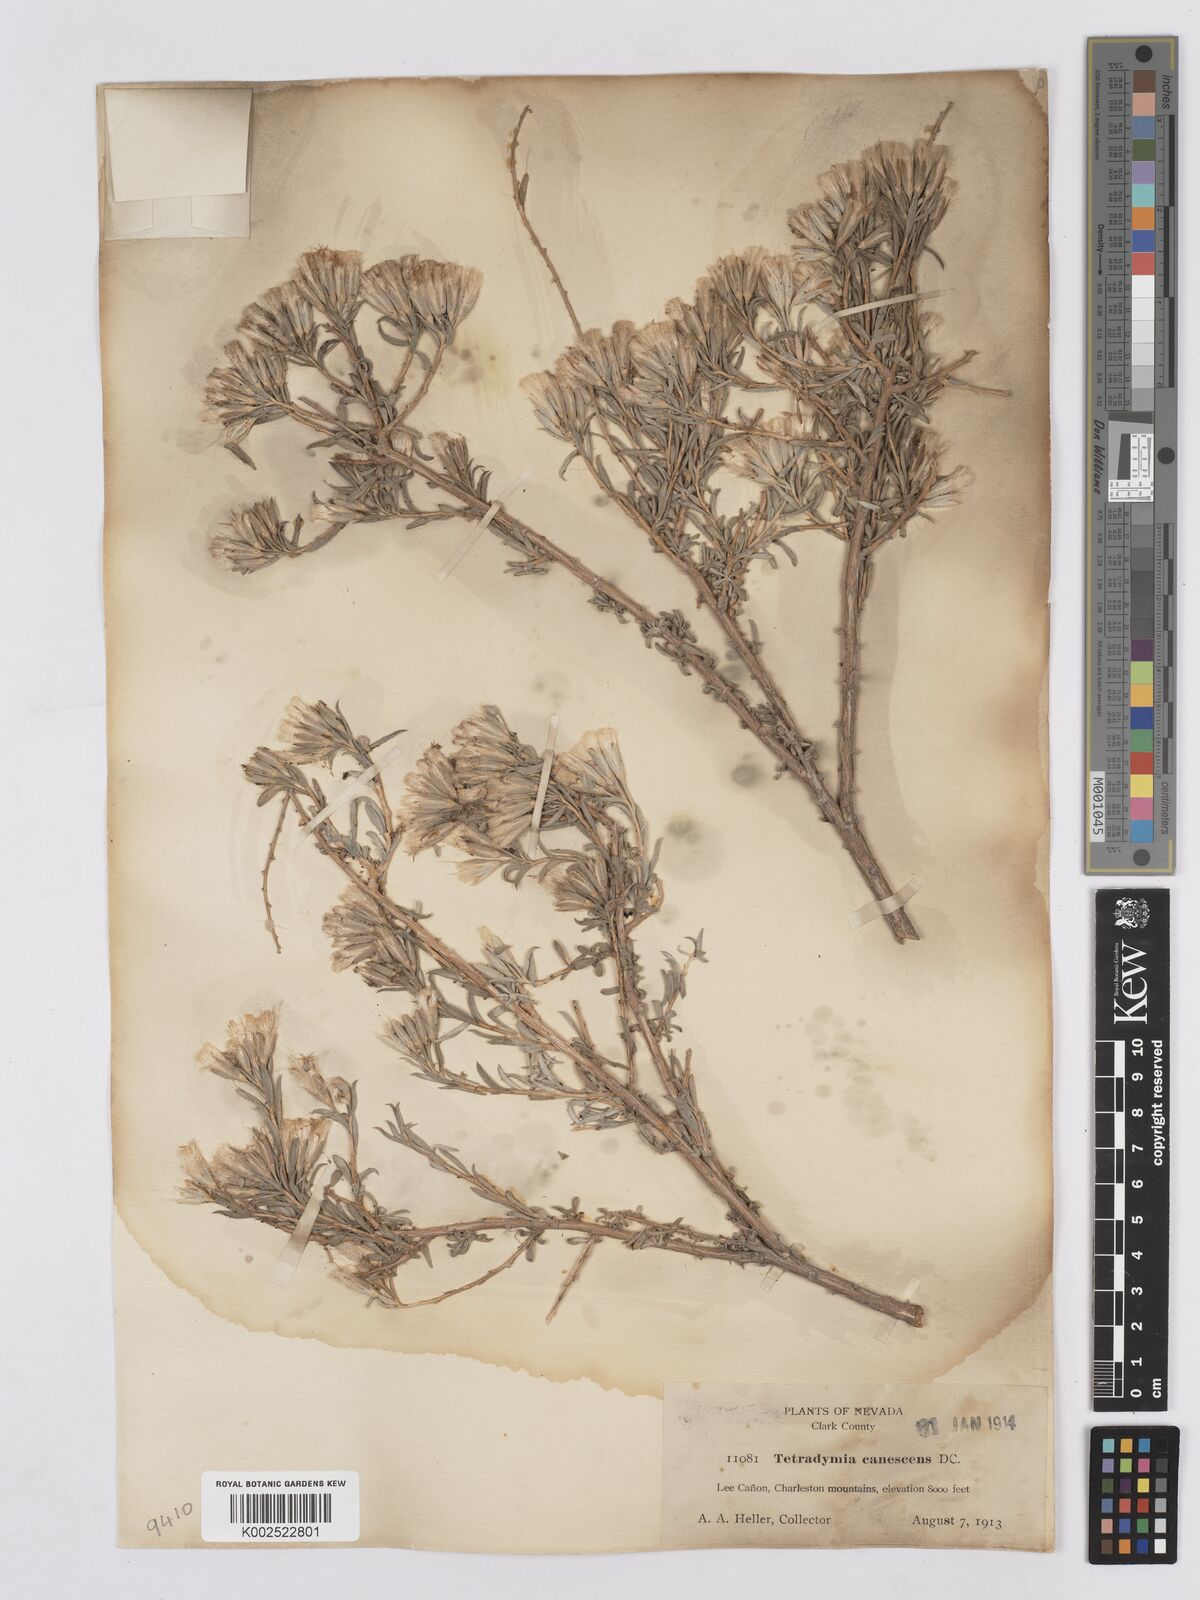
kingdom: Plantae
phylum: Tracheophyta
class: Magnoliopsida
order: Asterales
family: Asteraceae
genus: Tetradymia
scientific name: Tetradymia canescens
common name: Spineless horsebrush
